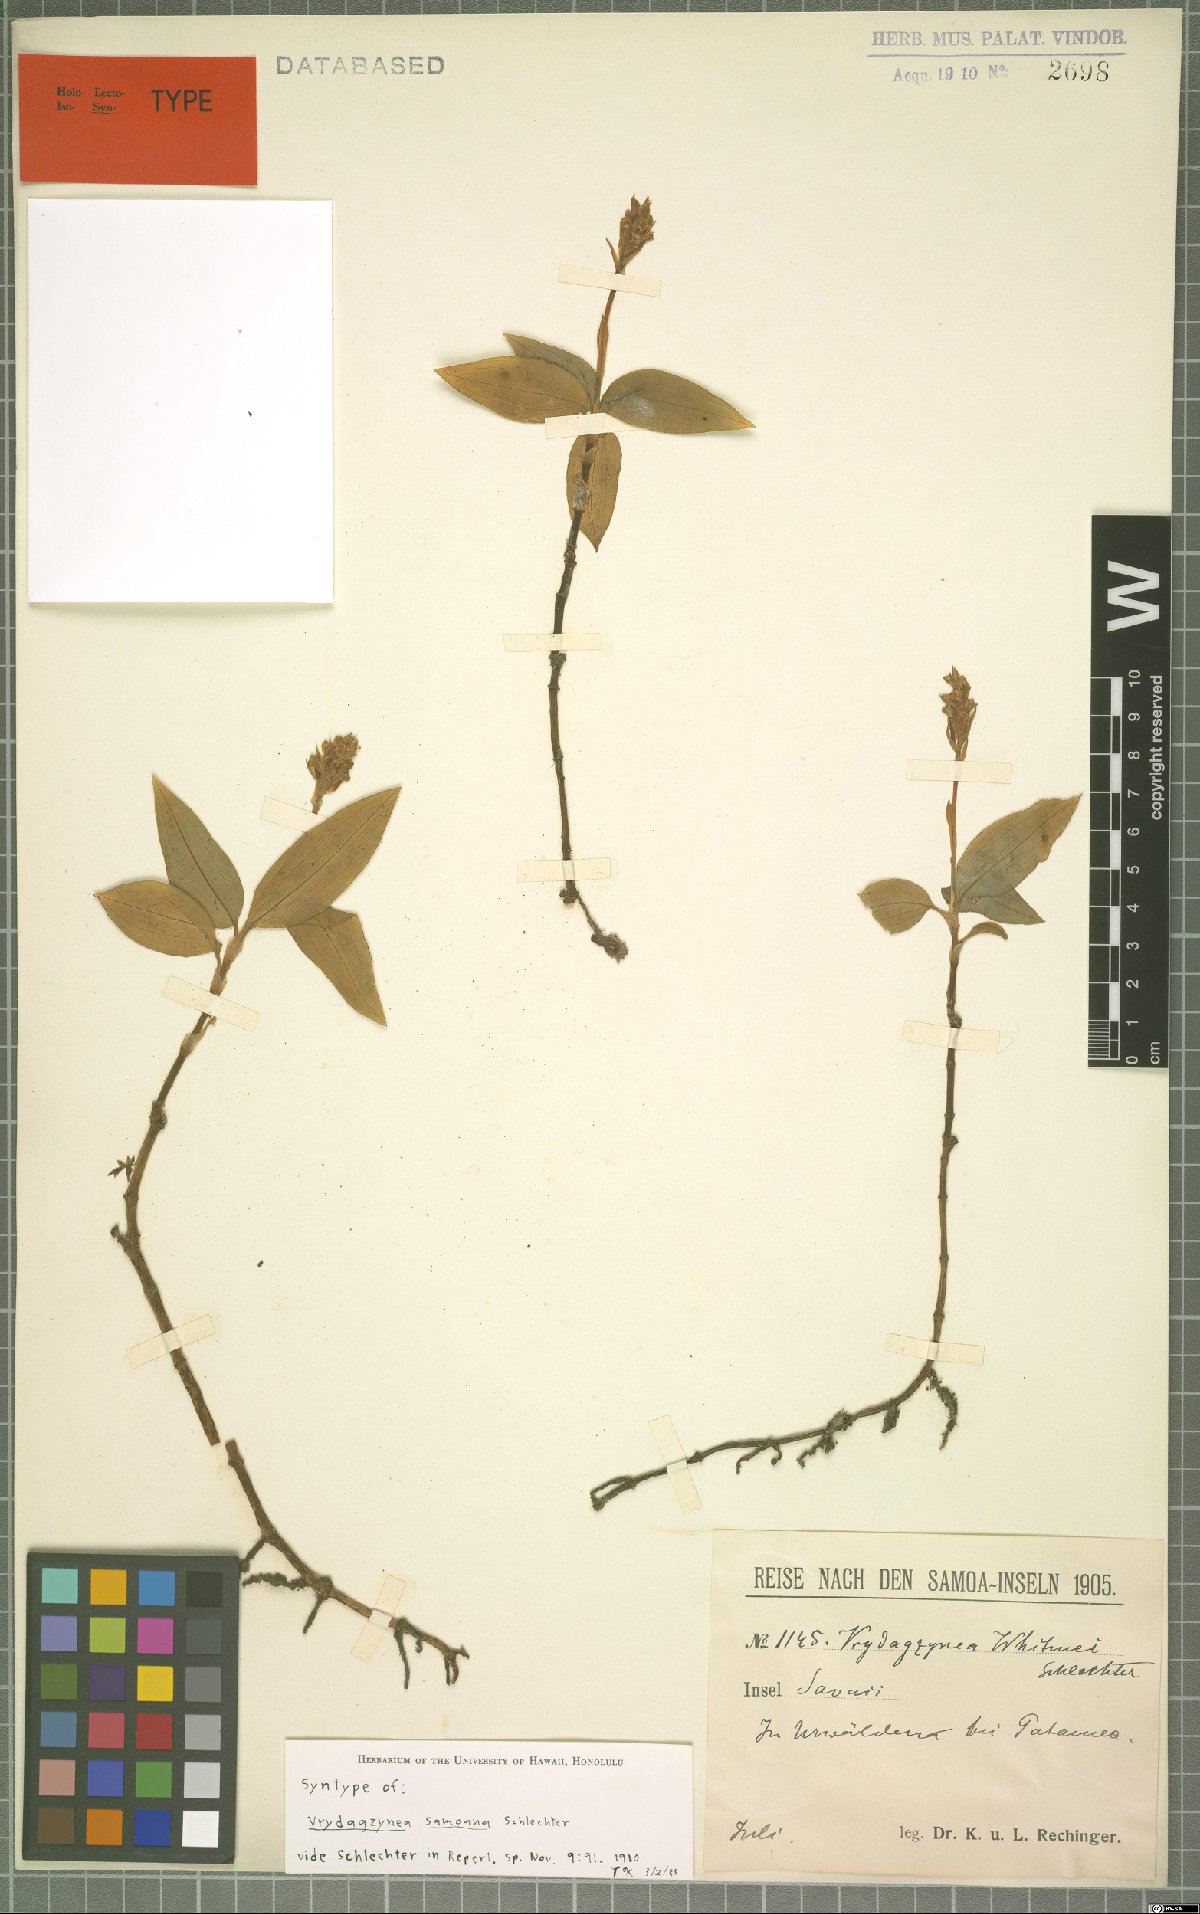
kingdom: Plantae
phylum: Tracheophyta
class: Liliopsida
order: Asparagales
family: Orchidaceae
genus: Vrydagzynea
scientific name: Vrydagzynea samoana
